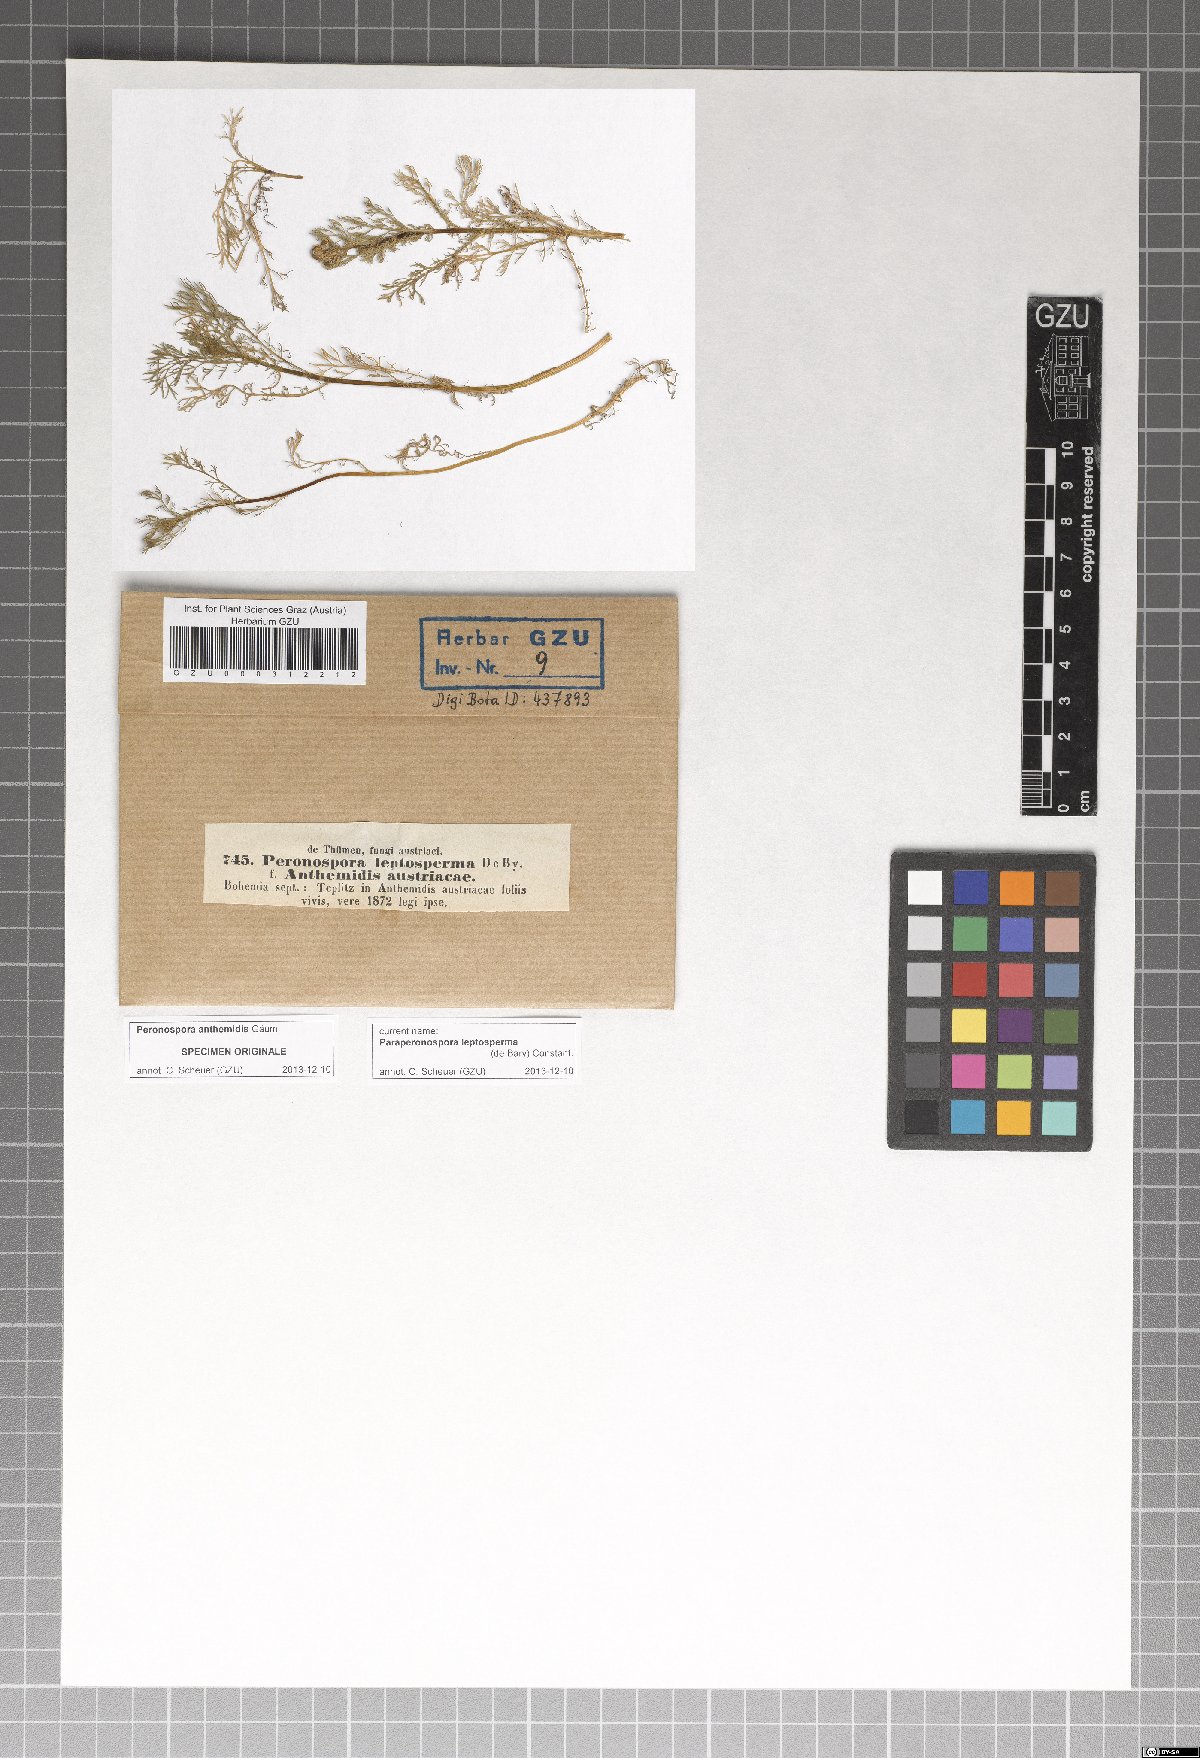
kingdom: Chromista
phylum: Oomycota
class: Peronosporea
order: Peronosporales
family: Peronosporaceae
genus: Paraperonospora
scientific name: Paraperonospora leptosperma
